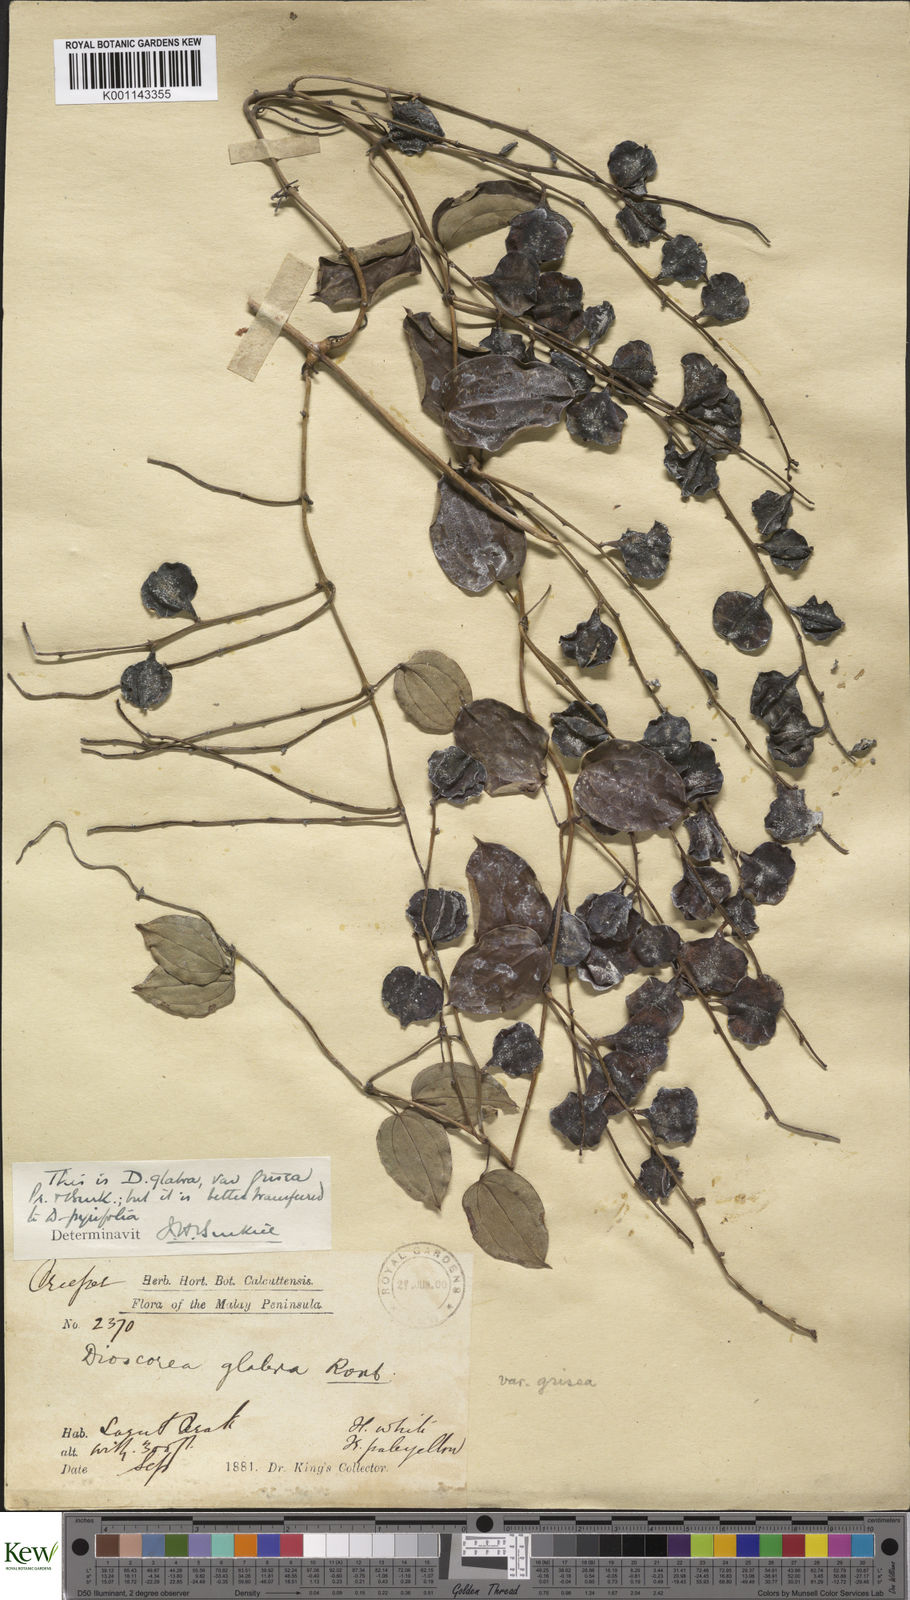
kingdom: Plantae
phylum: Tracheophyta
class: Liliopsida
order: Dioscoreales
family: Dioscoreaceae
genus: Dioscorea
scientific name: Dioscorea pyrifolia
